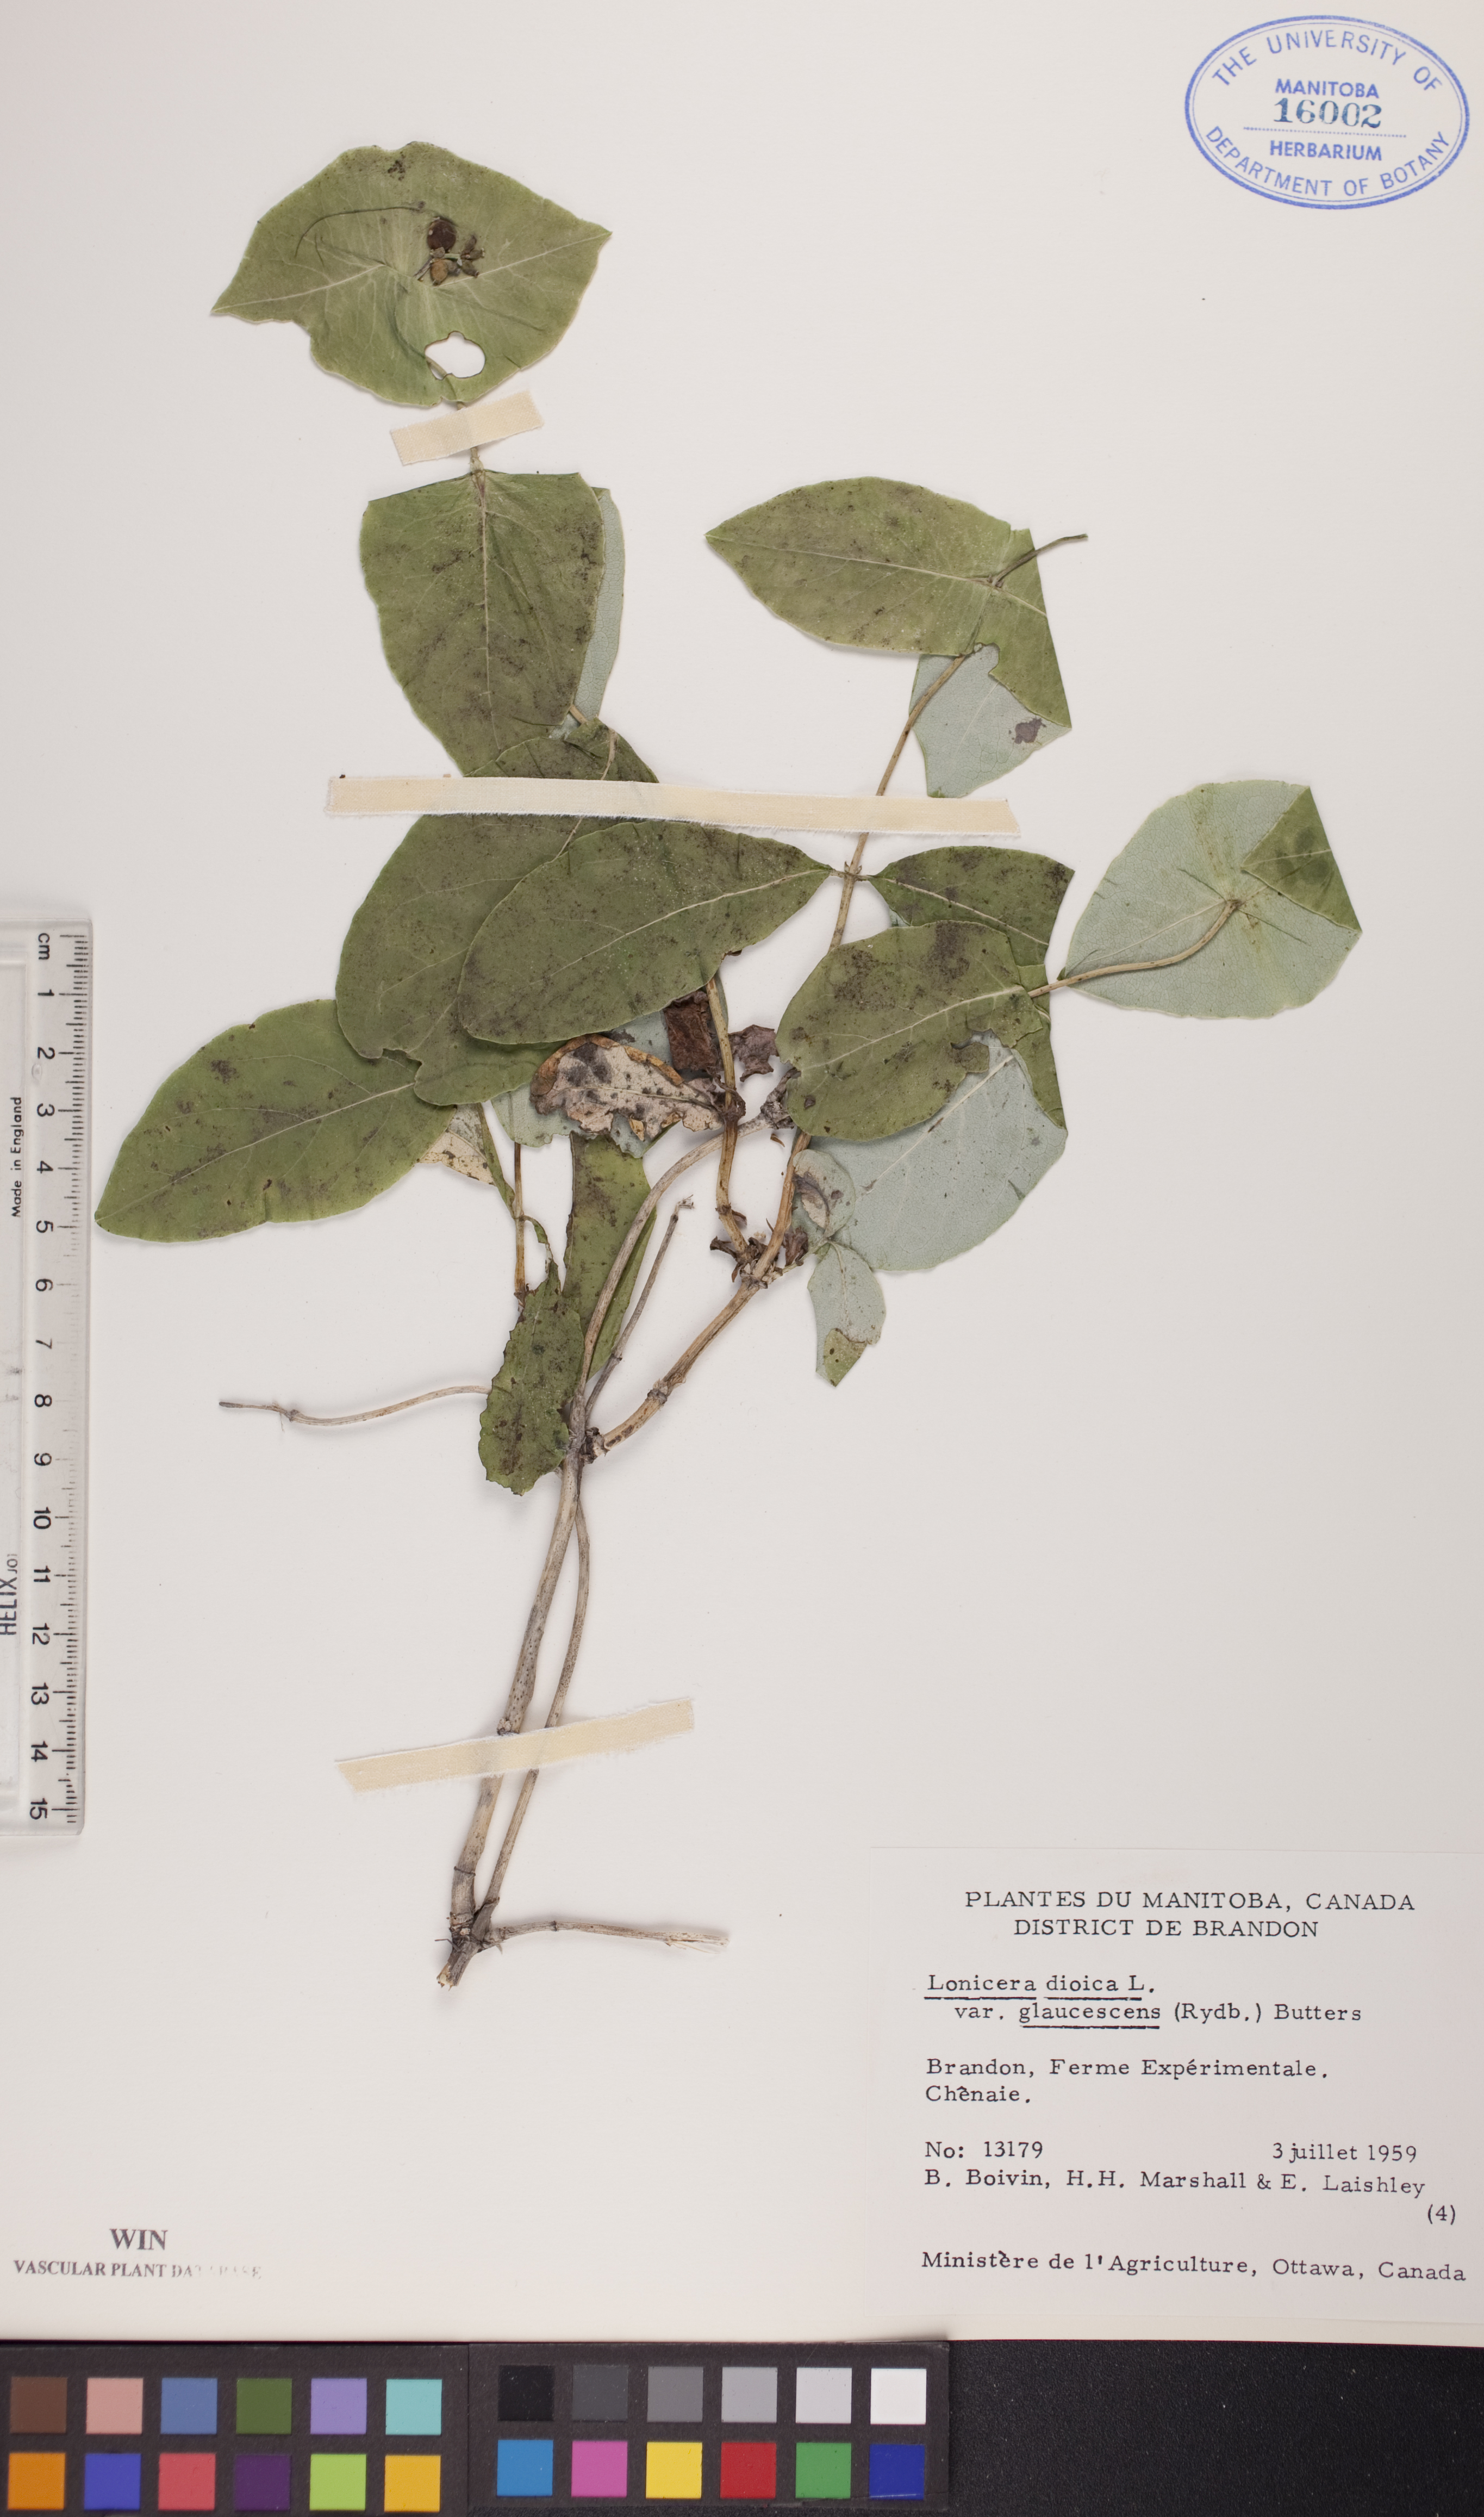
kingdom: Plantae
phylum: Tracheophyta
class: Magnoliopsida
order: Dipsacales
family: Caprifoliaceae
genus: Lonicera
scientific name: Lonicera dioica
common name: Limber honeysuckle
